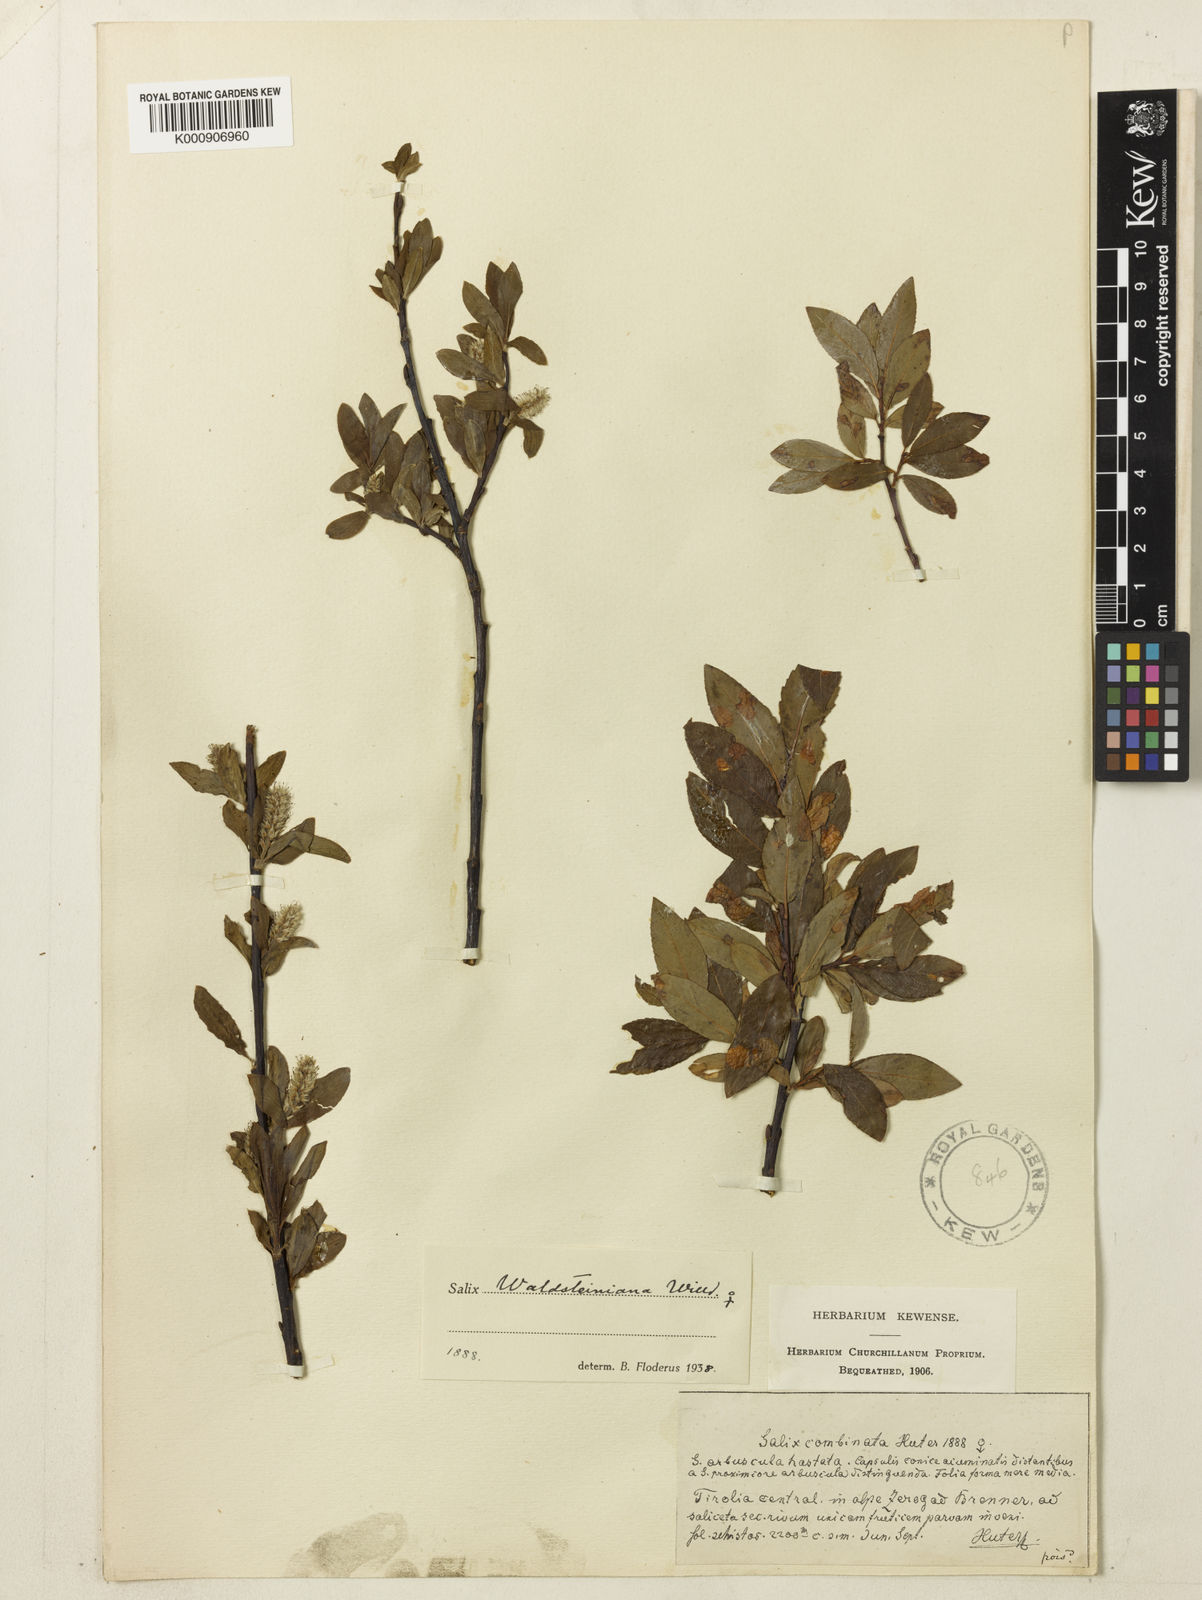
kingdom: Plantae
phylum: Tracheophyta
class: Magnoliopsida
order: Malpighiales
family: Salicaceae
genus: Salix
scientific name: Salix mielichhoferi
